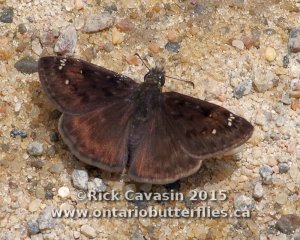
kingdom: Animalia
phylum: Arthropoda
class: Insecta
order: Lepidoptera
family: Hesperiidae
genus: Gesta
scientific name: Gesta
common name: Horace's Duskywing
